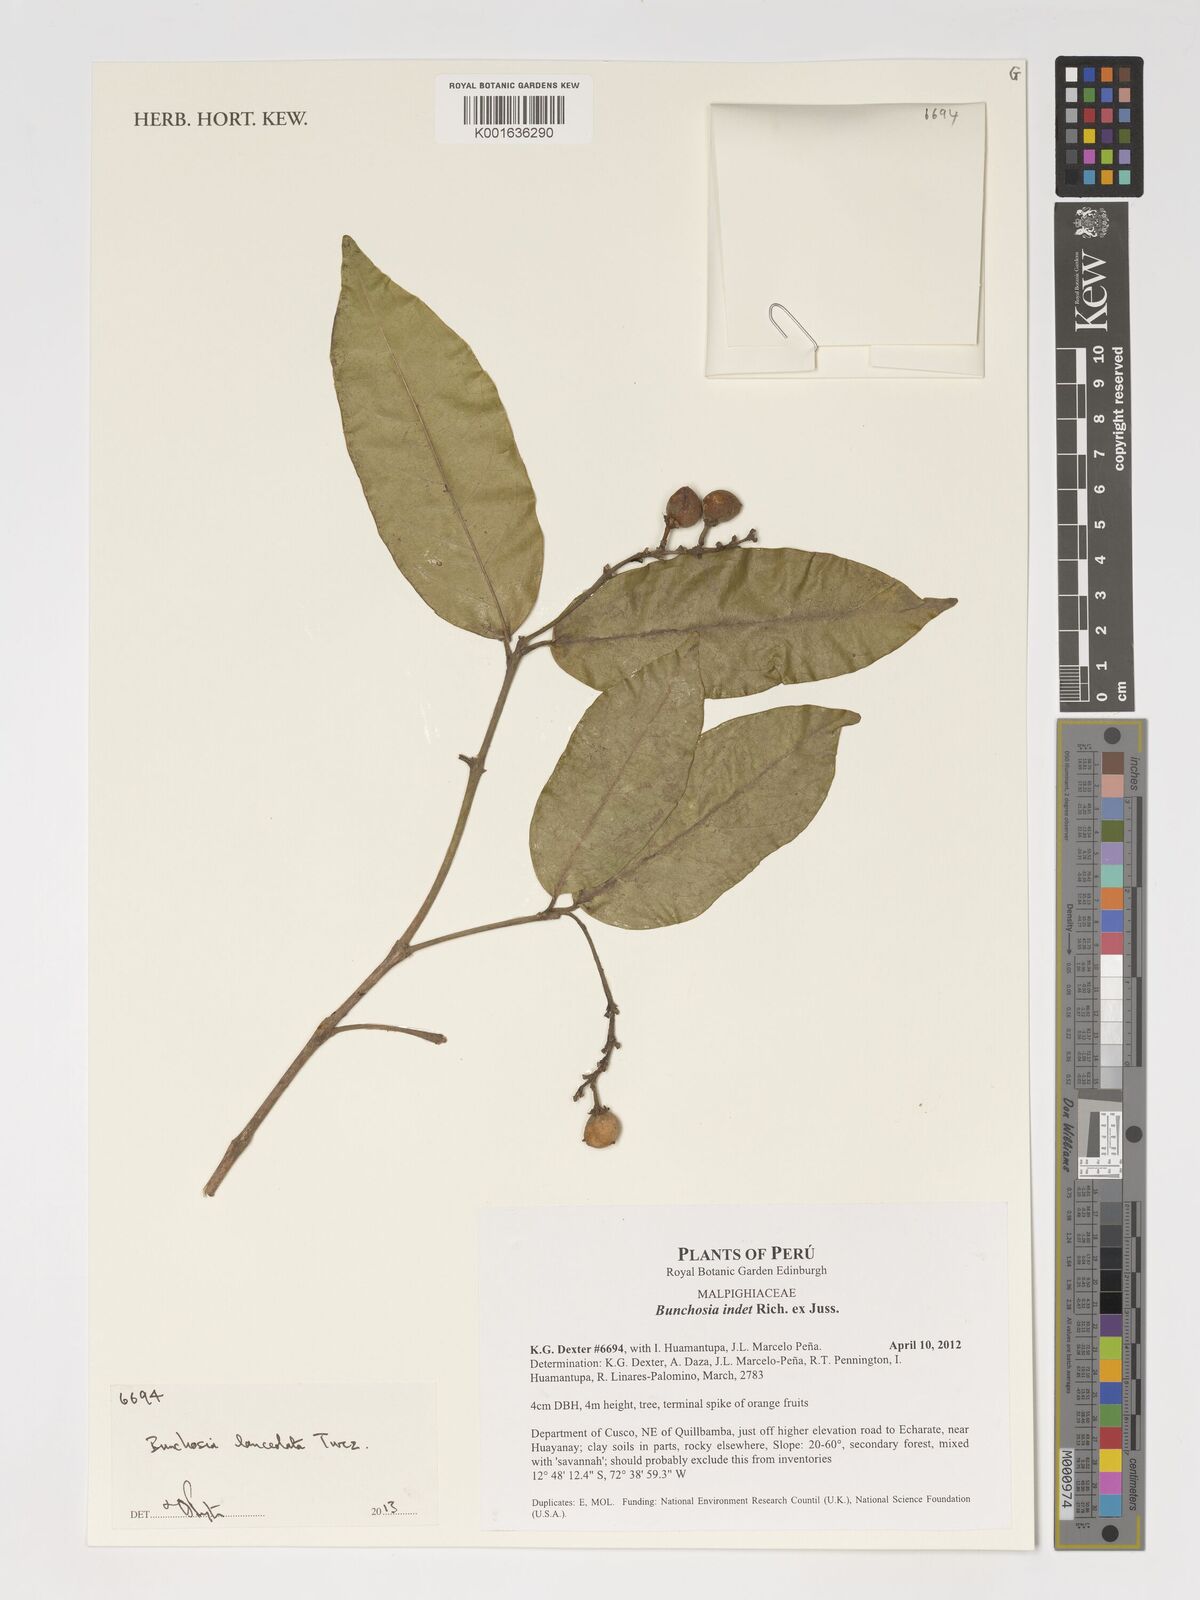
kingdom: Plantae
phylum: Tracheophyta
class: Magnoliopsida
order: Malpighiales
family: Malpighiaceae
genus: Bunchosia
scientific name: Bunchosia lindeniana
